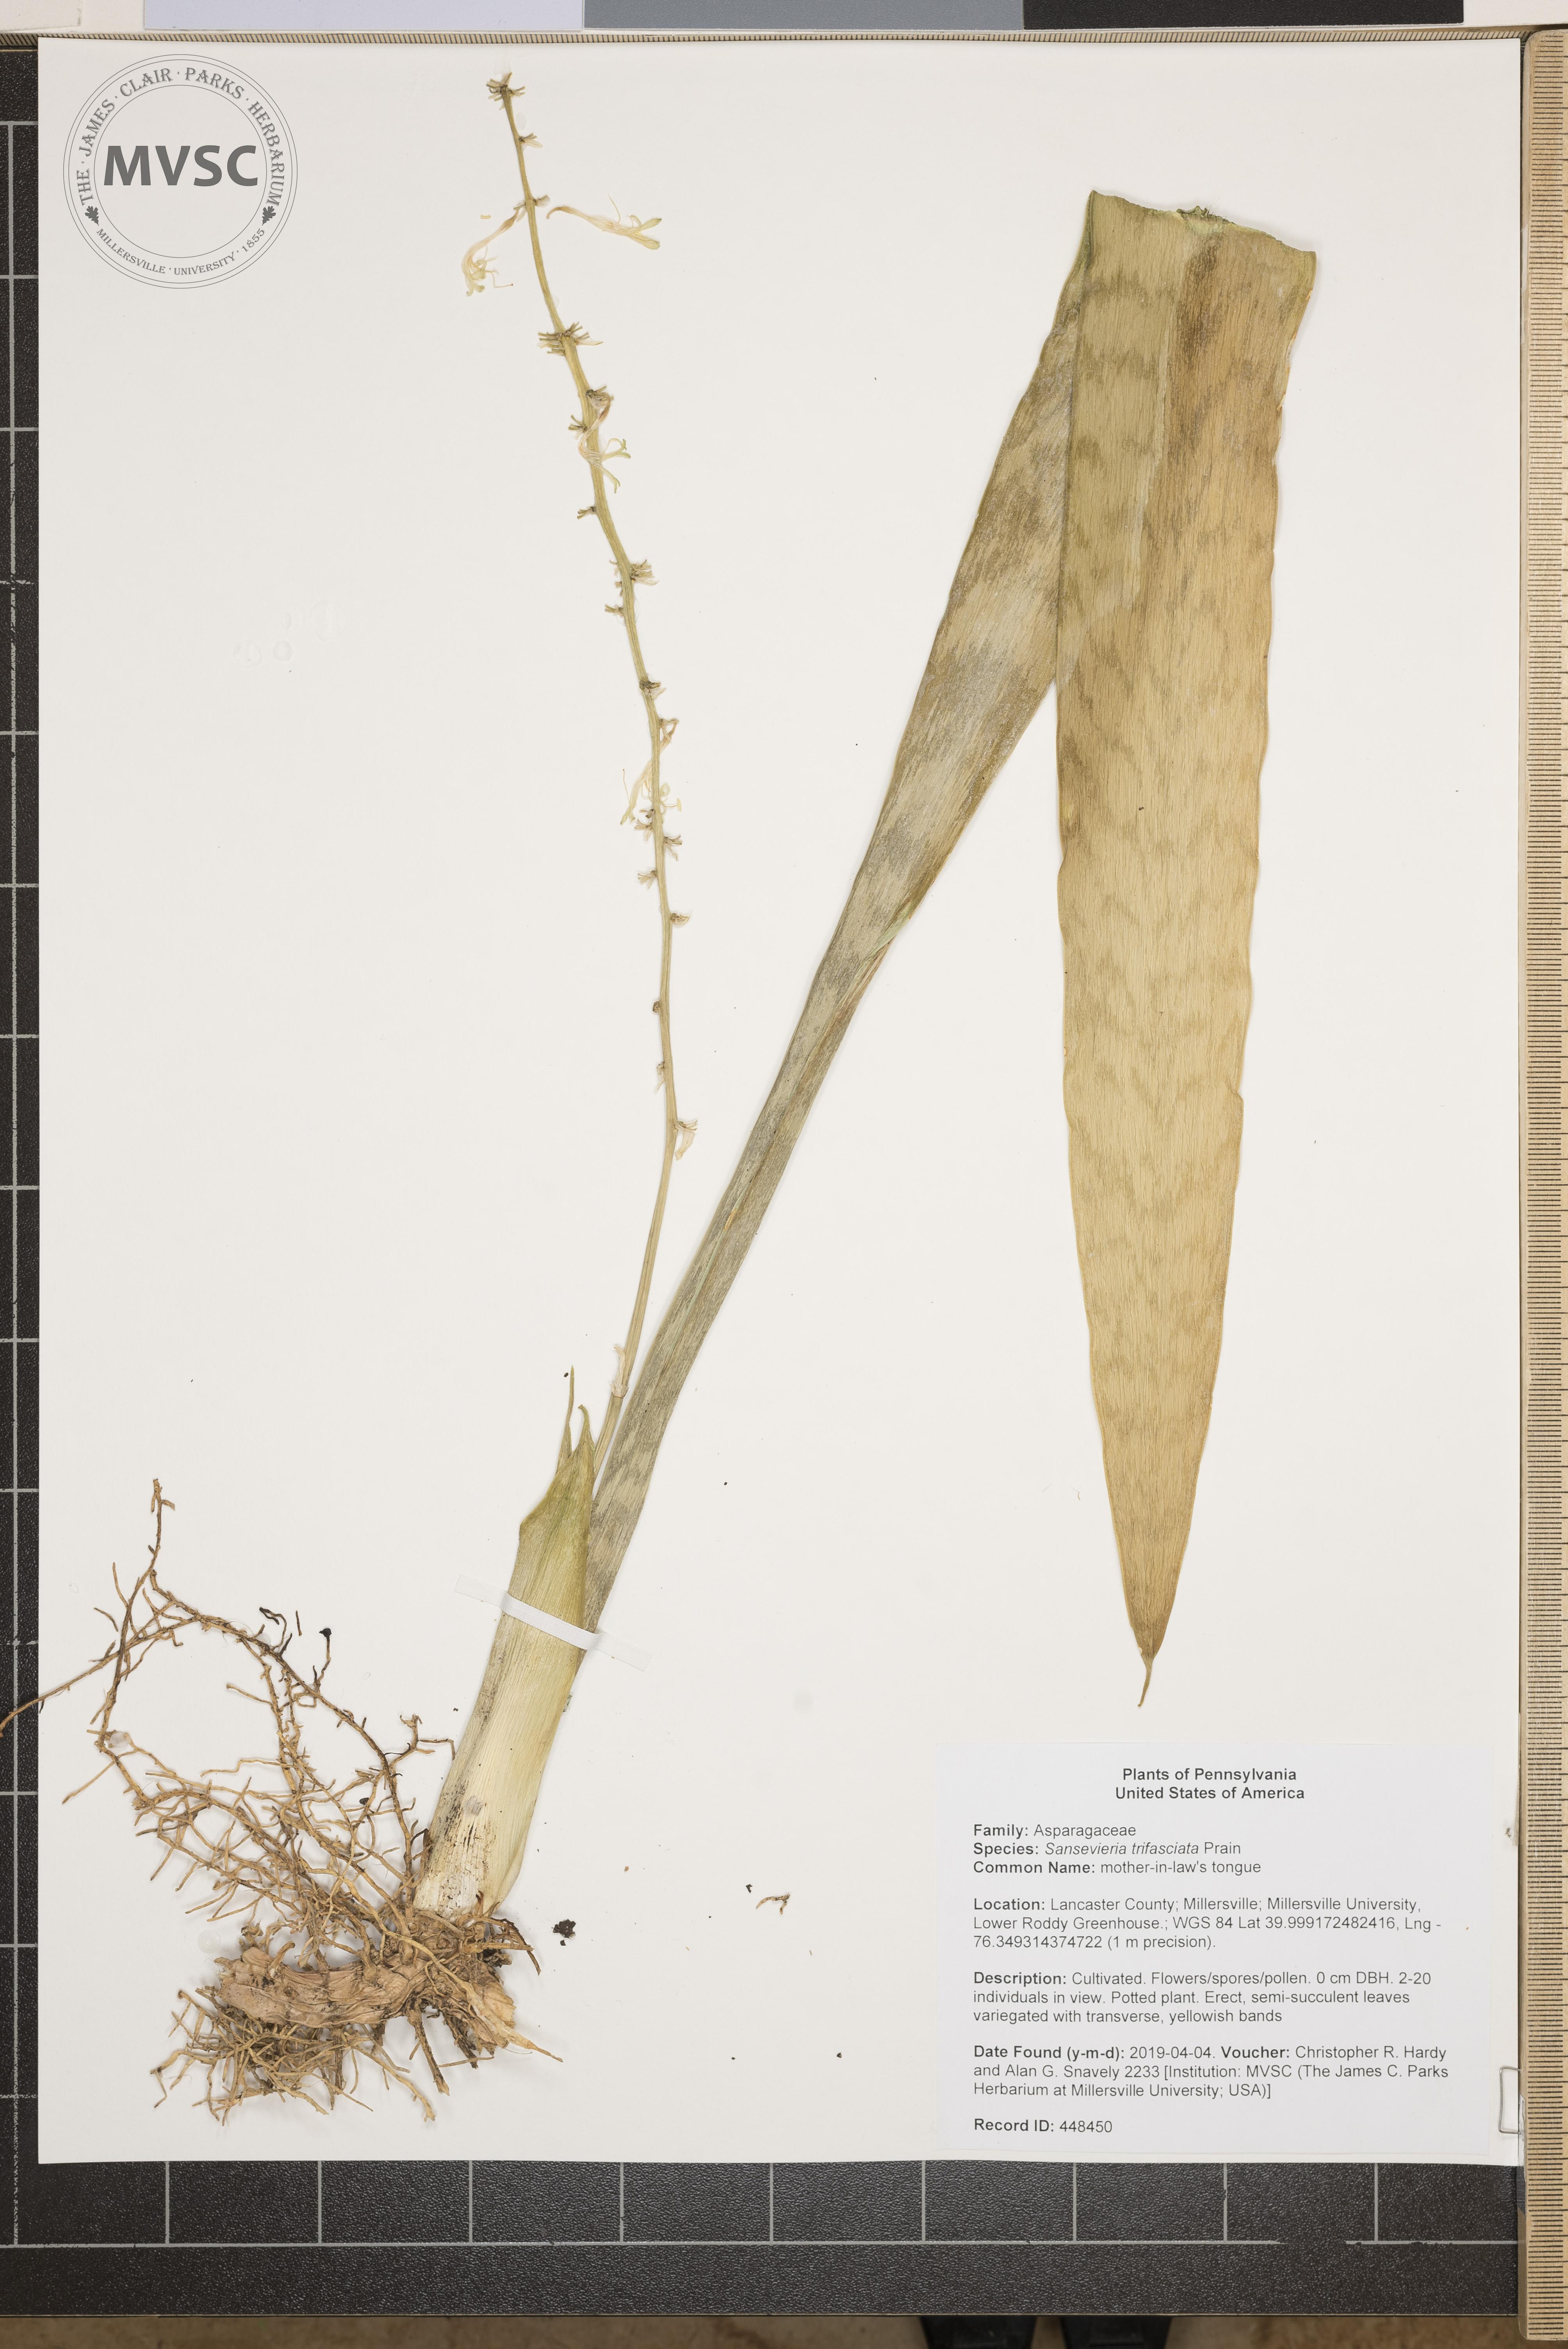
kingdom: Plantae
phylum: Tracheophyta
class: Liliopsida
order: Asparagales
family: Asparagaceae
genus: Dracaena
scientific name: Dracaena trifasciata
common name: mother-in-law's tongue
